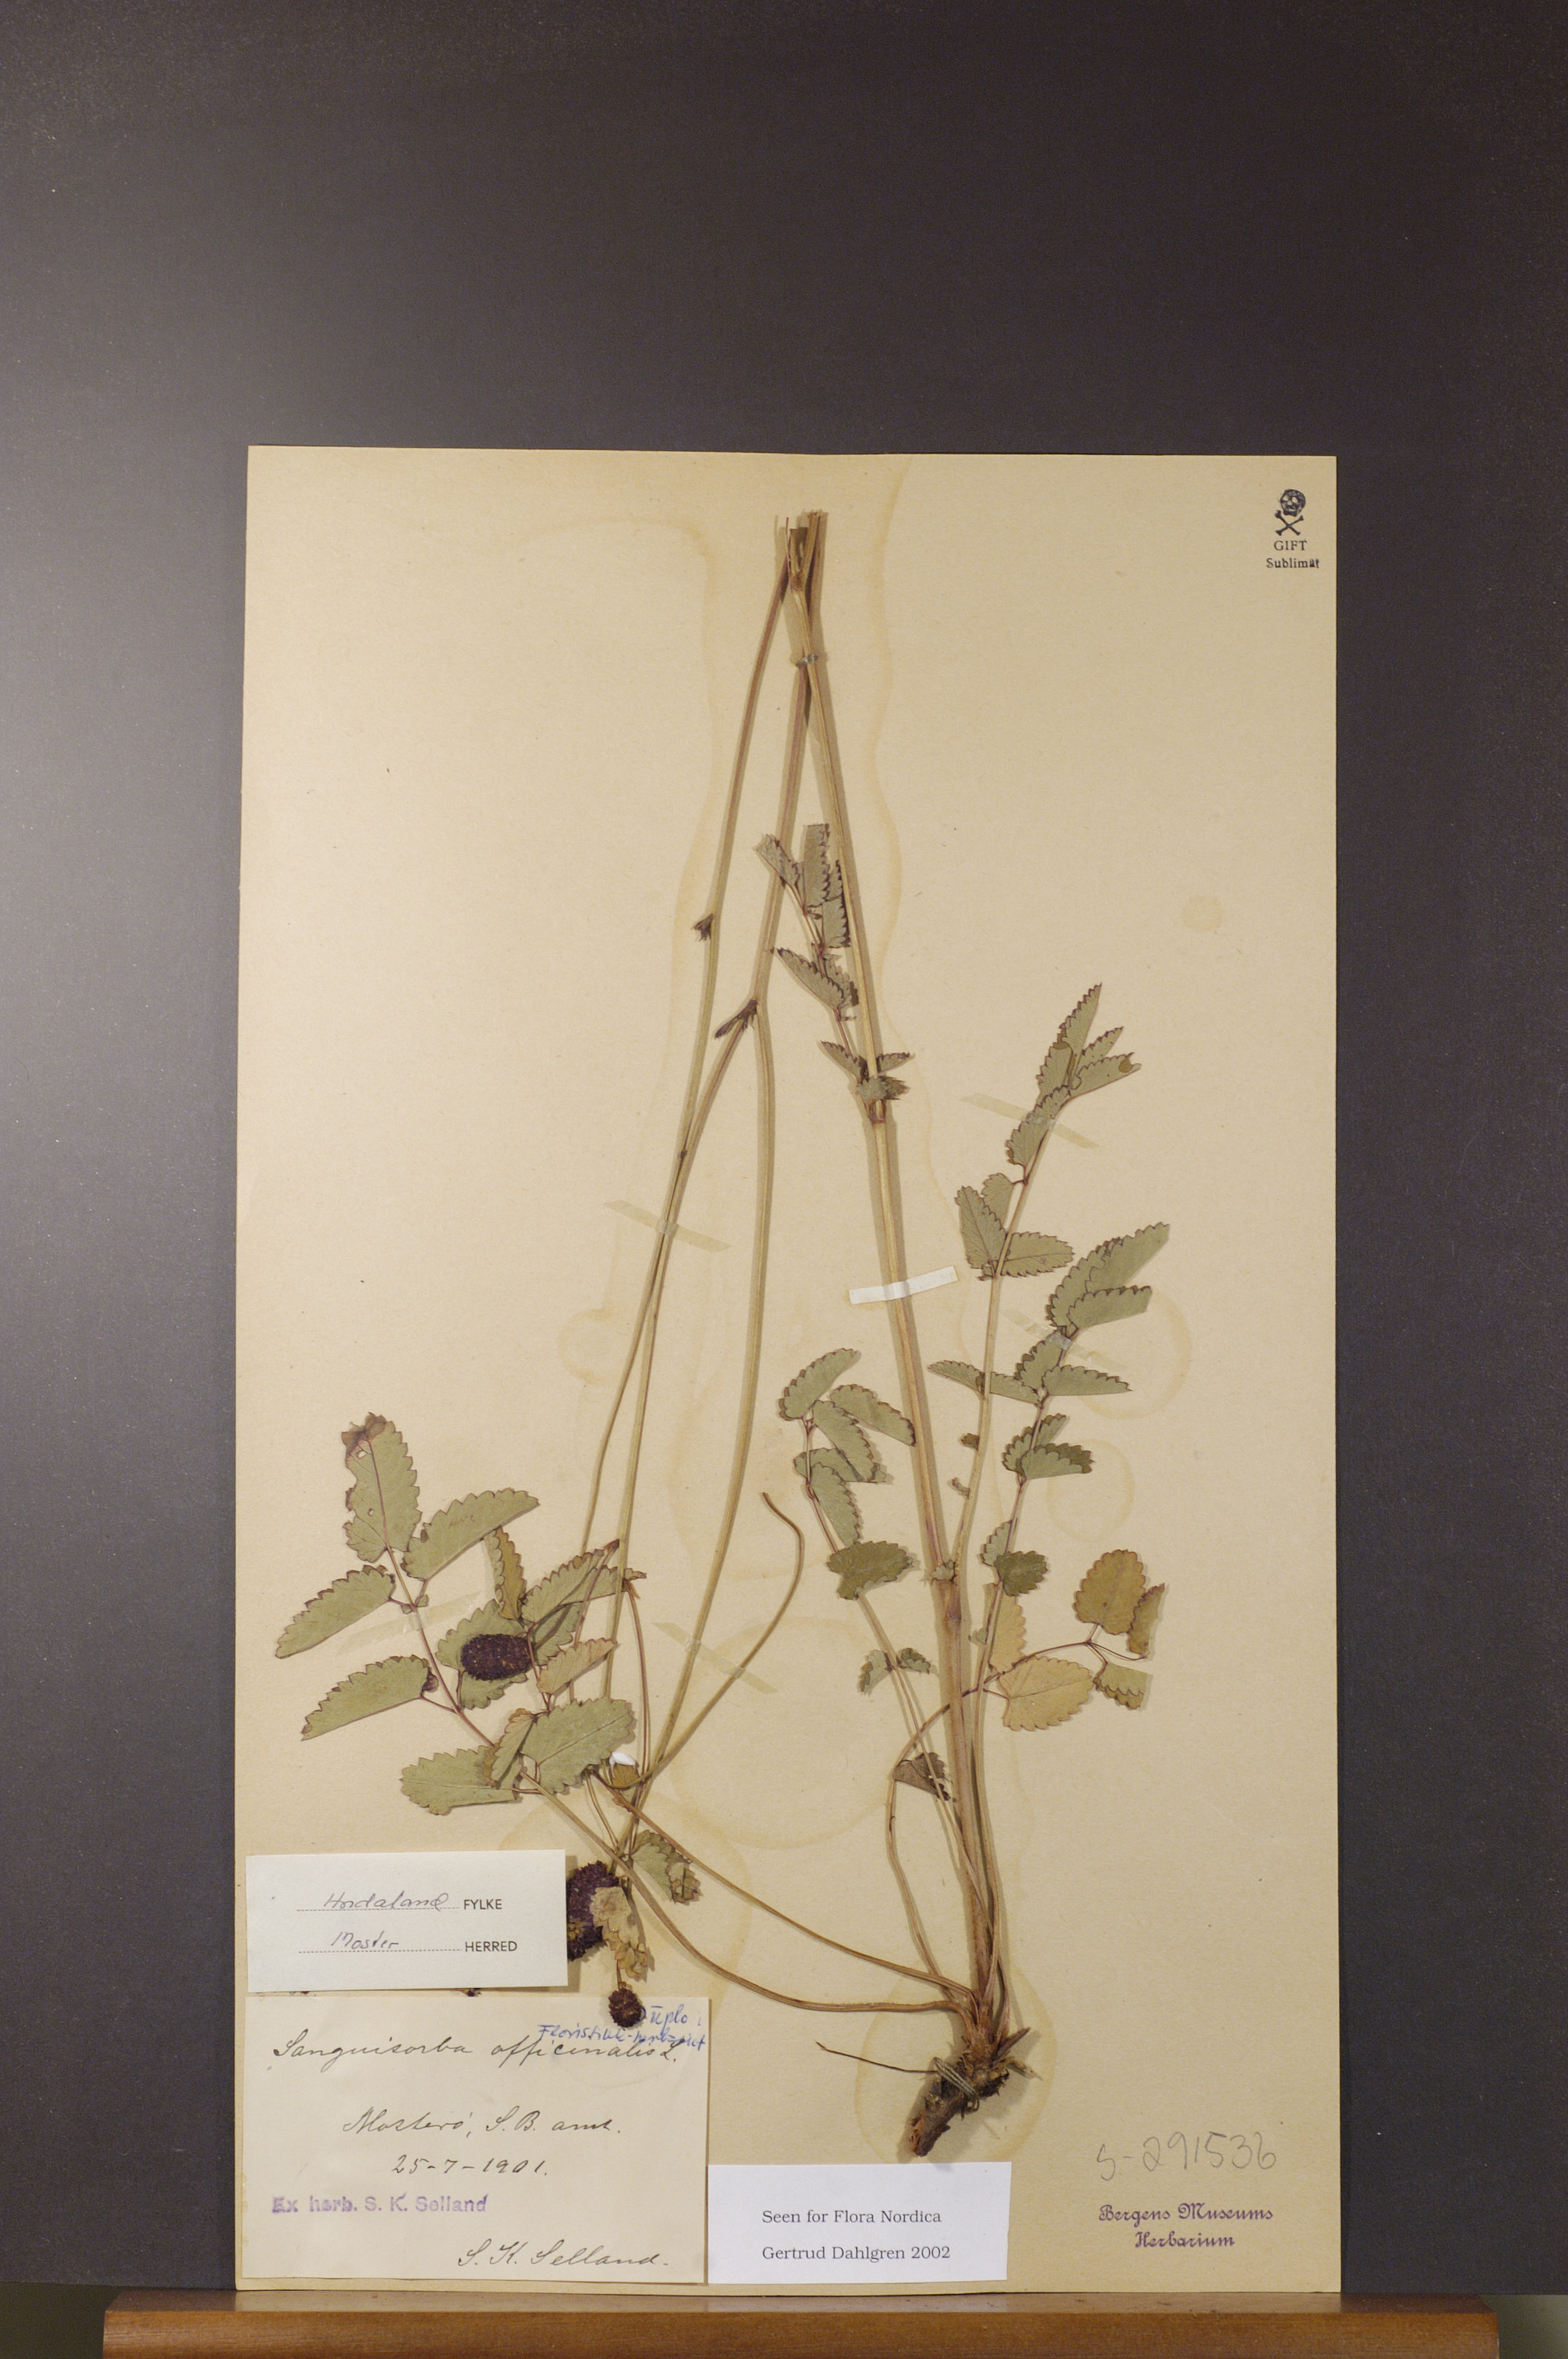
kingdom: Plantae
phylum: Tracheophyta
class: Magnoliopsida
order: Rosales
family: Rosaceae
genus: Sanguisorba
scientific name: Sanguisorba officinalis
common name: Great burnet
